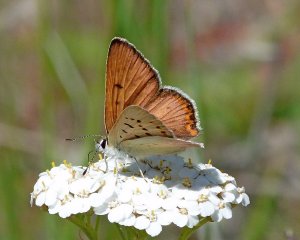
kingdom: Animalia
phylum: Arthropoda
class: Insecta
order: Lepidoptera
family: Sesiidae
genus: Sesia
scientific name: Sesia Lycaena helloides
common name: Purplish Copper
